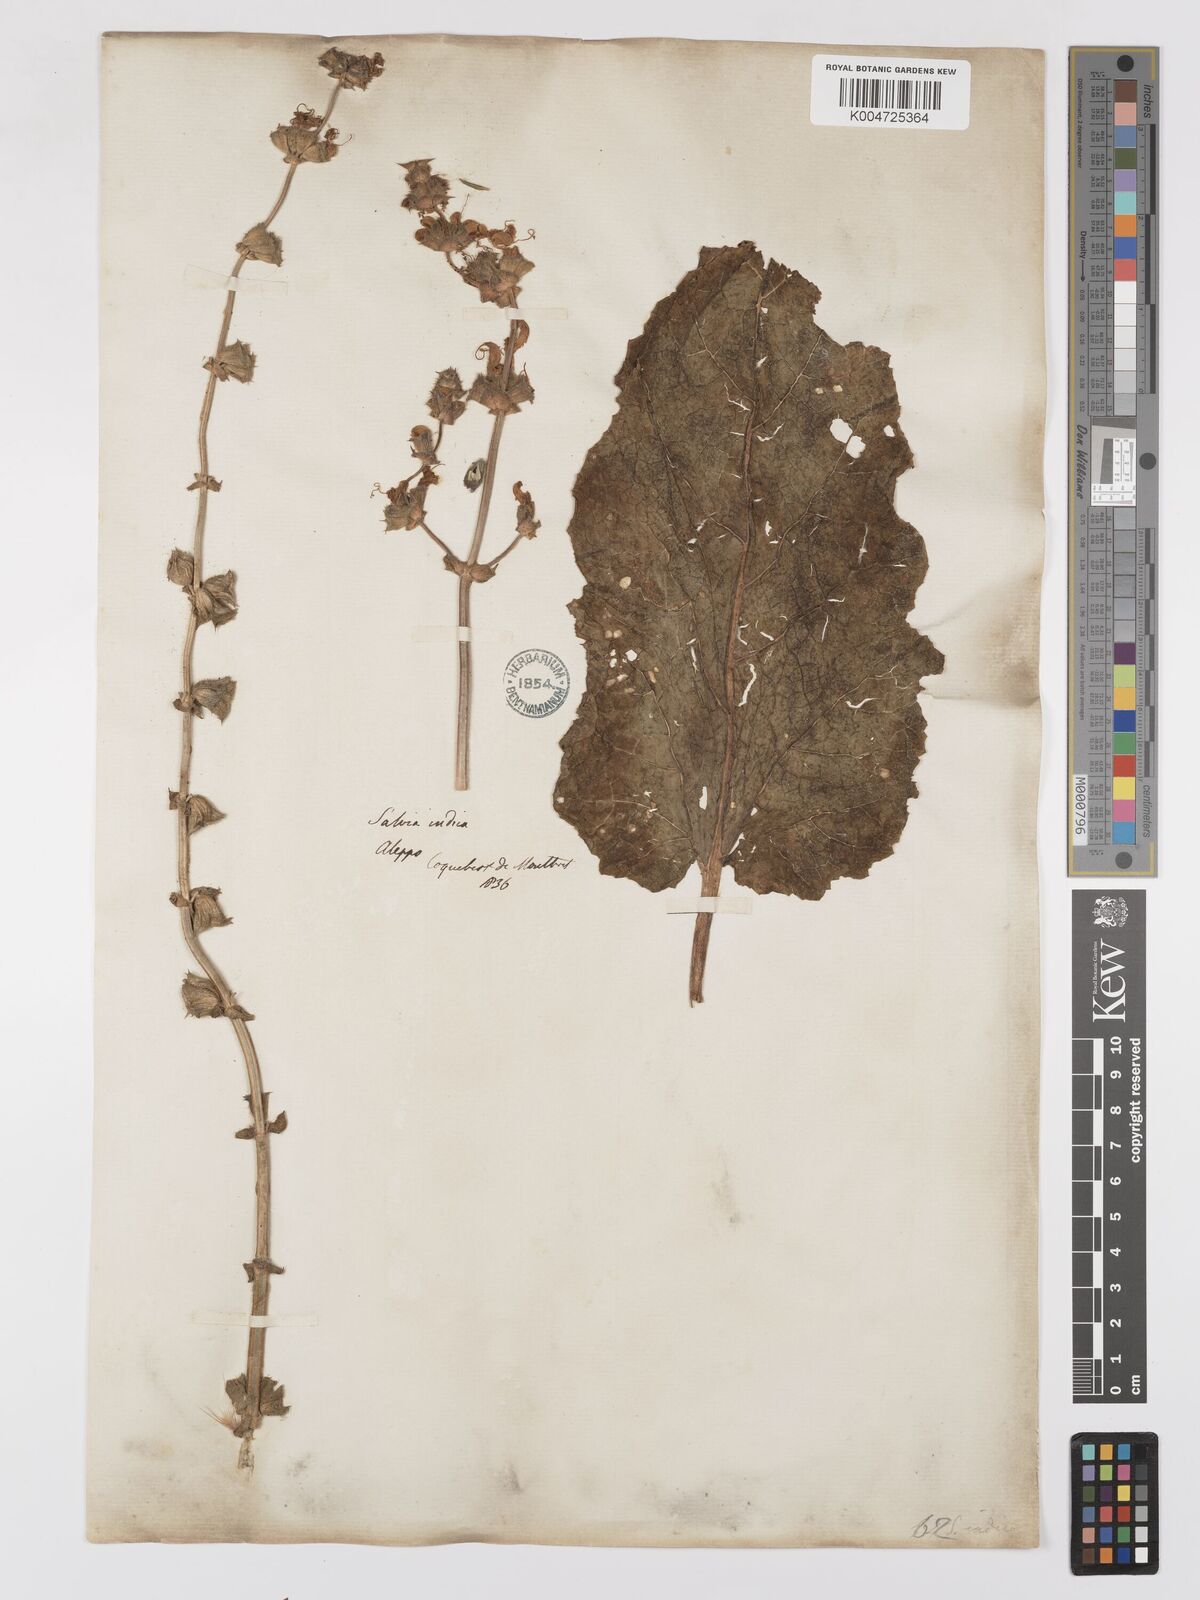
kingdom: Plantae
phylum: Tracheophyta
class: Magnoliopsida
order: Lamiales
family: Lamiaceae
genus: Salvia
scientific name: Salvia indica
